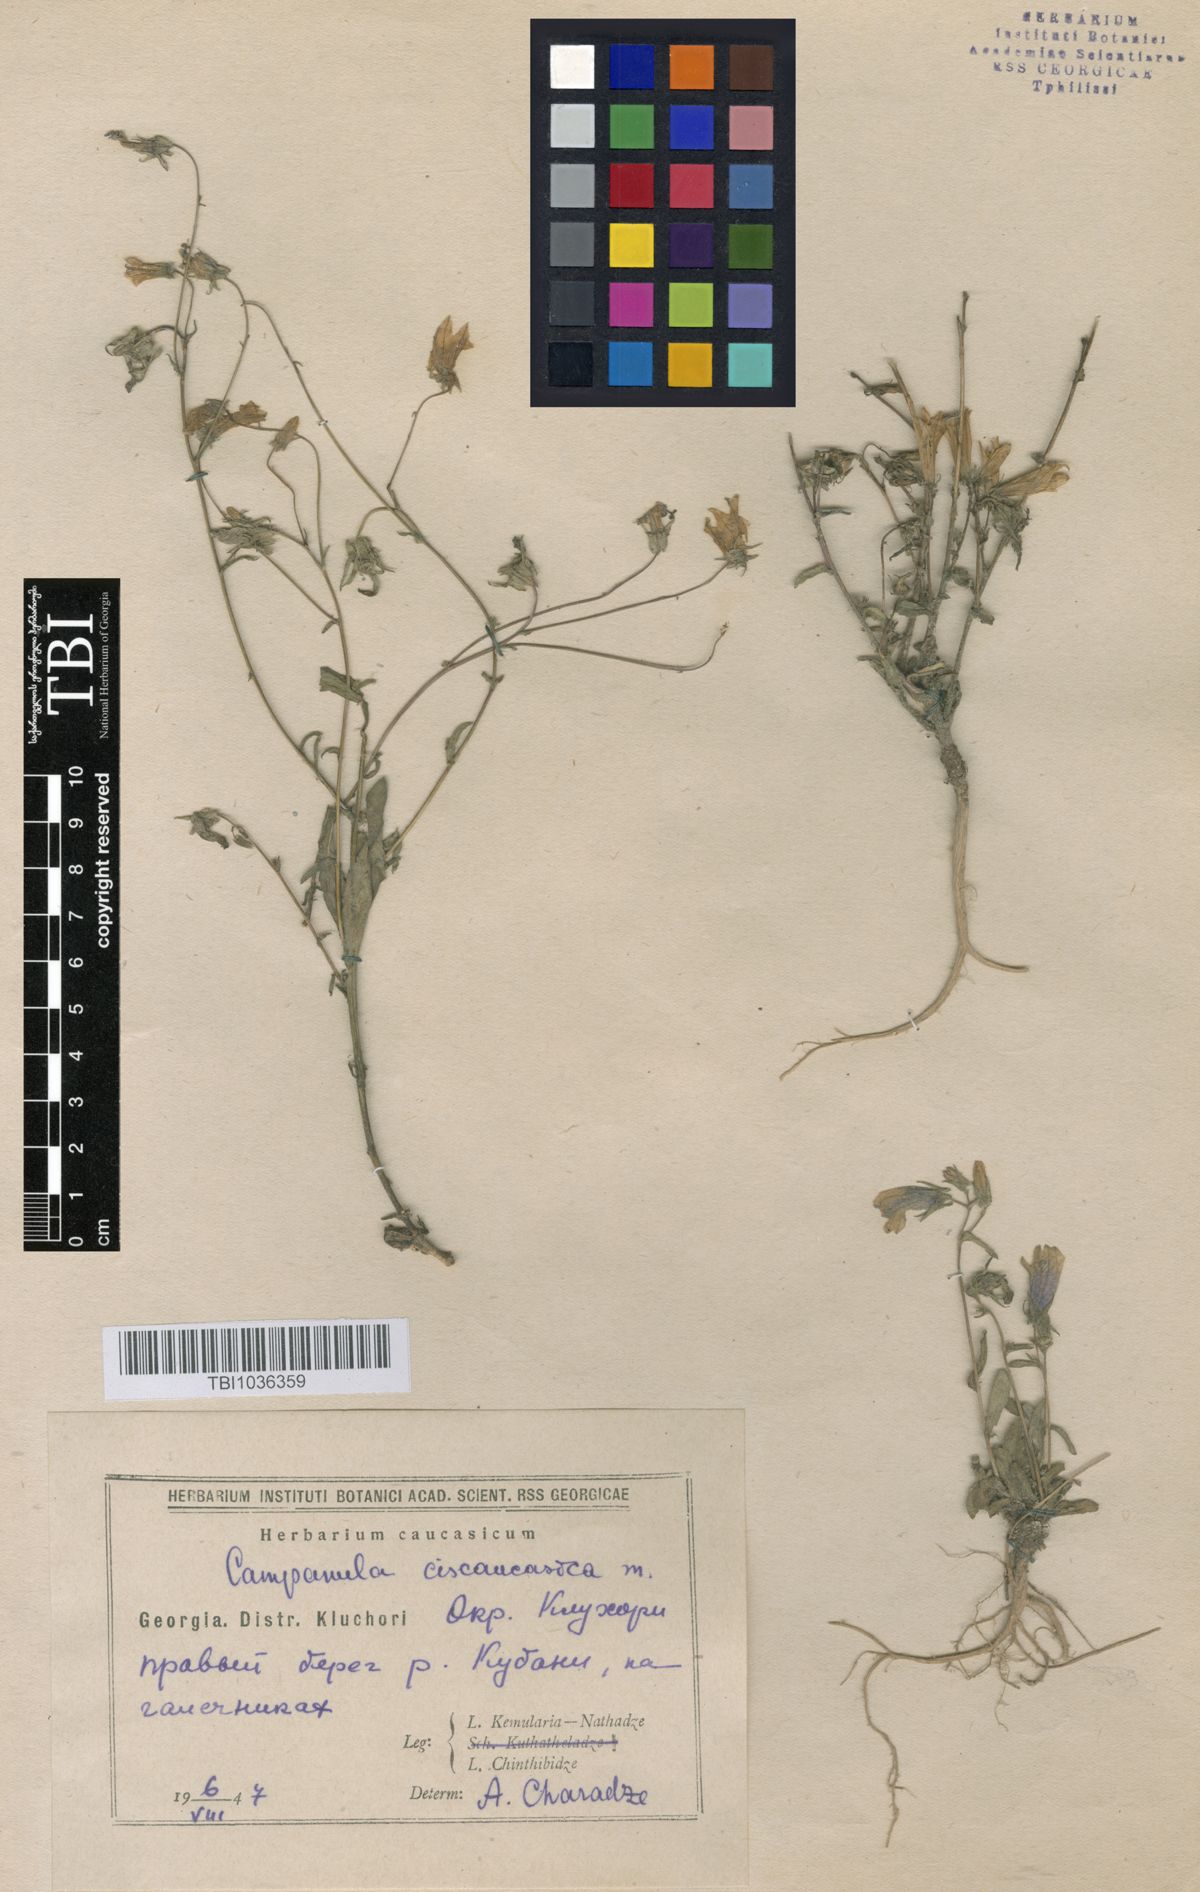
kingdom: Plantae
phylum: Tracheophyta
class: Magnoliopsida
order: Asterales
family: Campanulaceae
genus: Campanula
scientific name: Campanula sibirica
